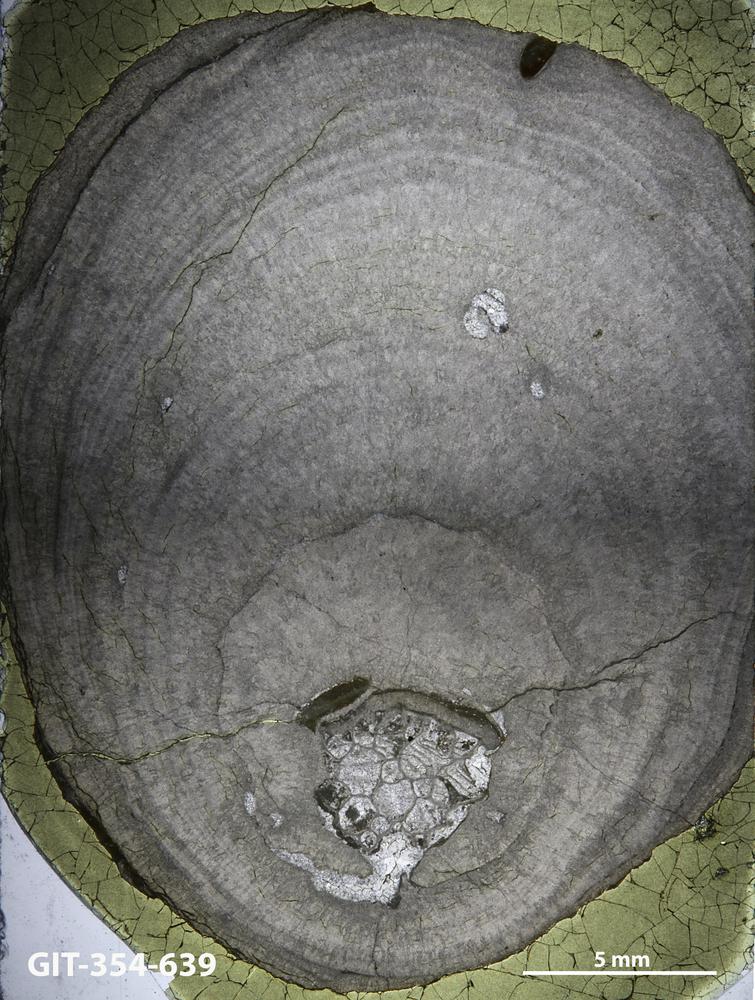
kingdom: Animalia
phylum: Porifera
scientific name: Porifera
